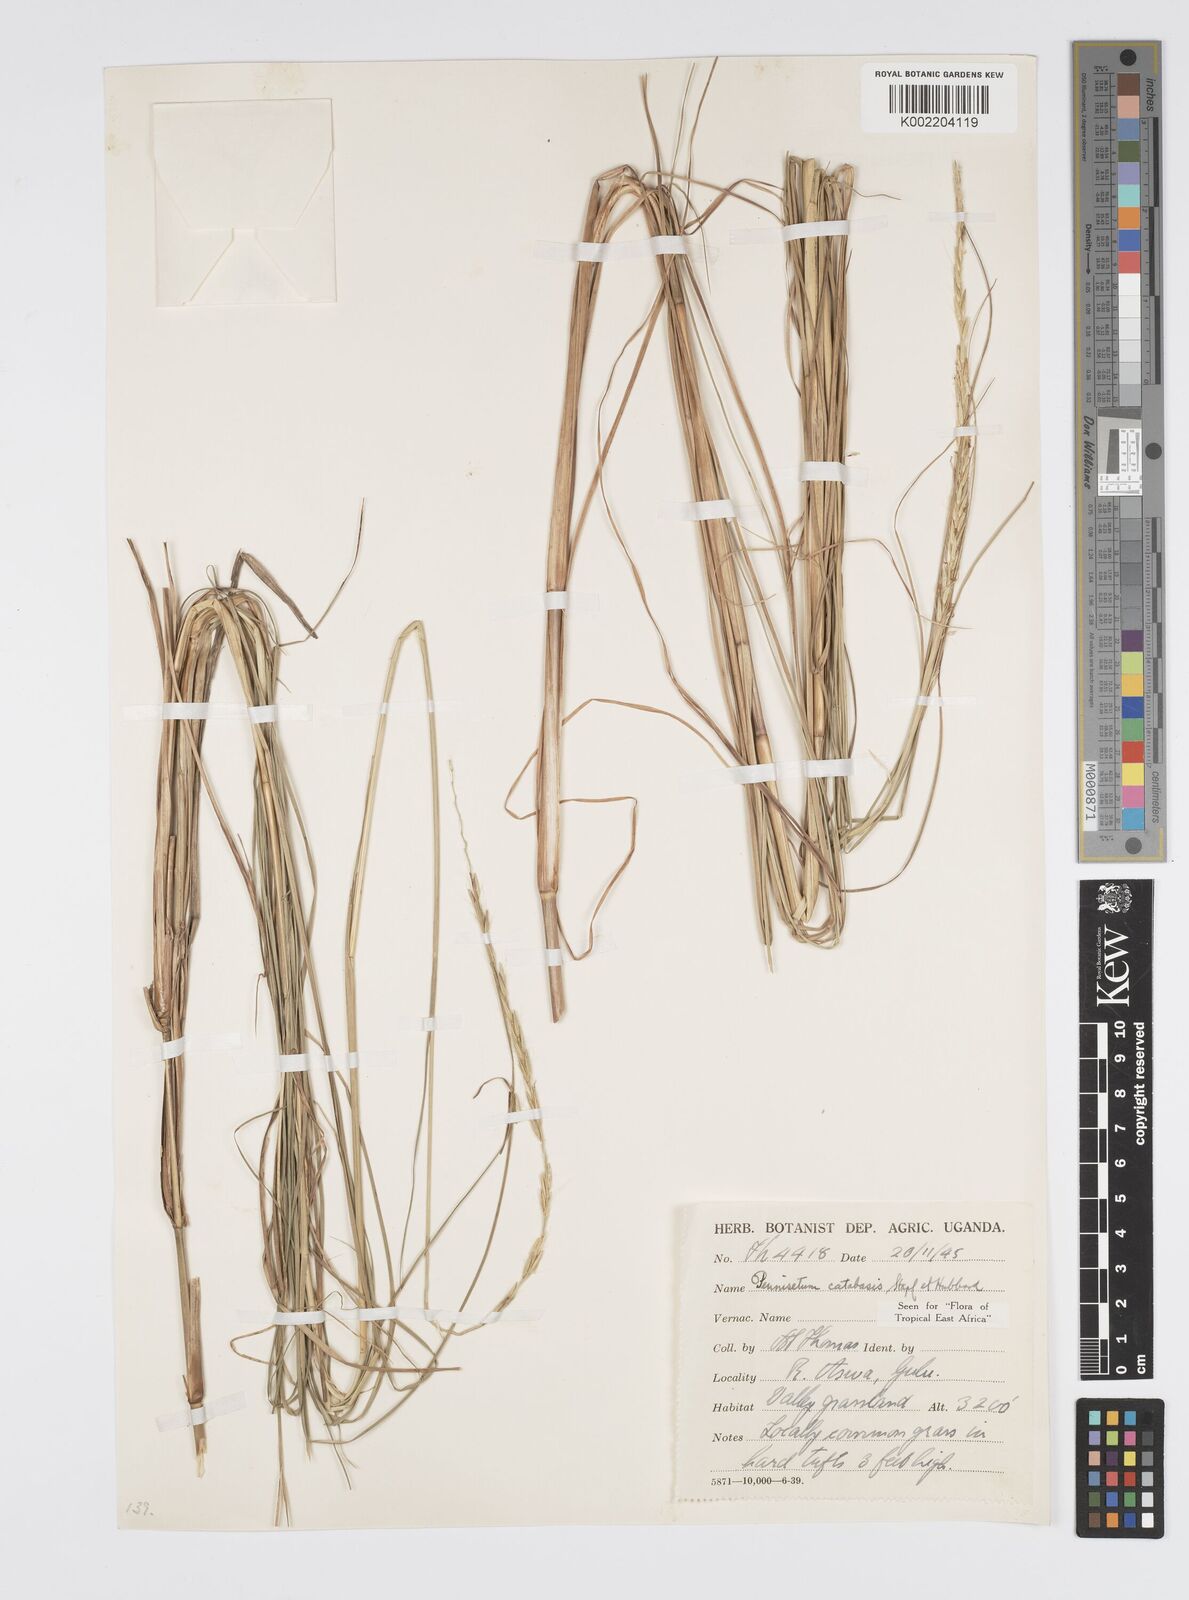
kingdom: Plantae
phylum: Tracheophyta
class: Liliopsida
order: Poales
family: Poaceae
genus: Cenchrus
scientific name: Cenchrus hohenackeri
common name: Moya grass
